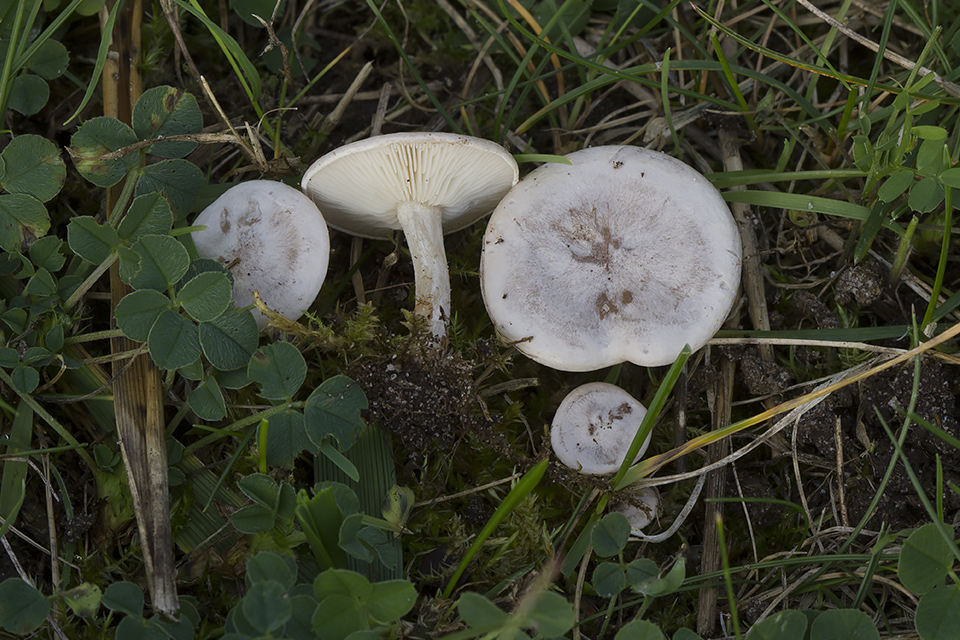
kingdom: Fungi
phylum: Basidiomycota
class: Agaricomycetes
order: Agaricales
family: Tricholomataceae
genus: Clitocybe
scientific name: Clitocybe rivulosa
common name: eng-tragthat
